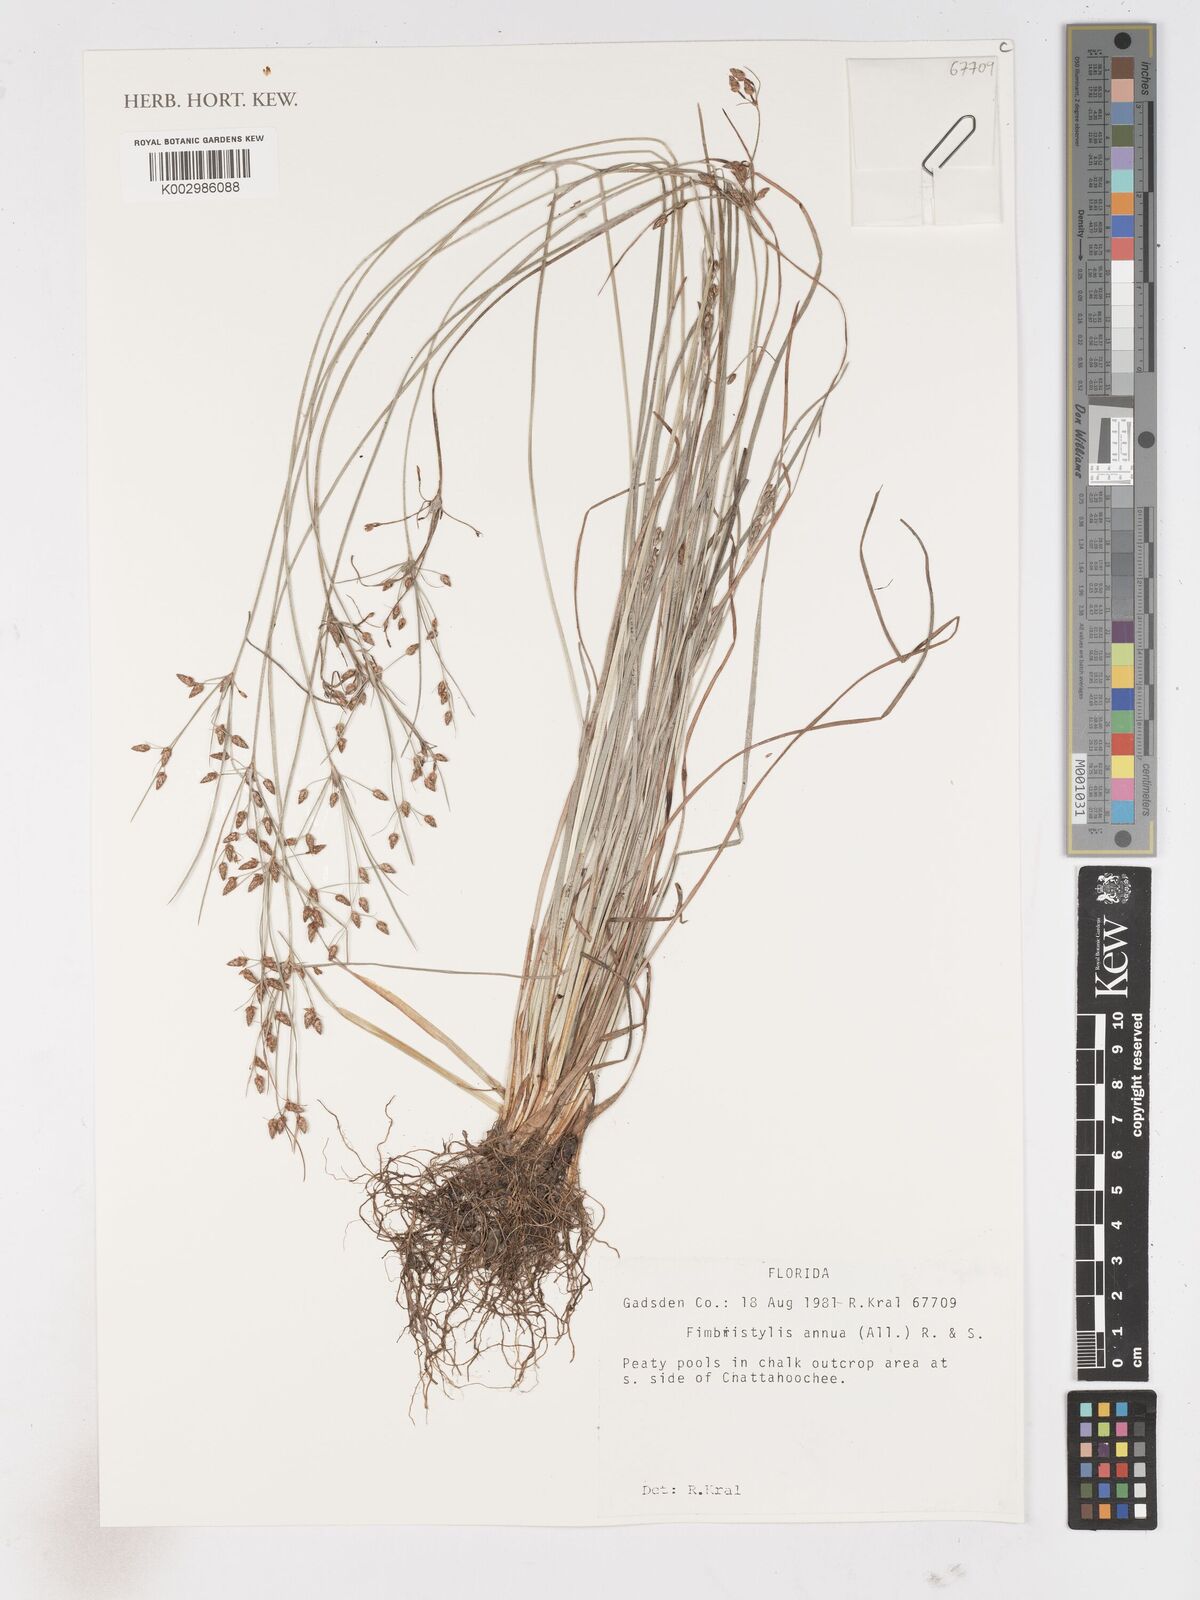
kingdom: Plantae
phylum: Tracheophyta
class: Liliopsida
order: Poales
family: Cyperaceae
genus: Fimbristylis
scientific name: Fimbristylis dichotoma
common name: Forked fimbry
